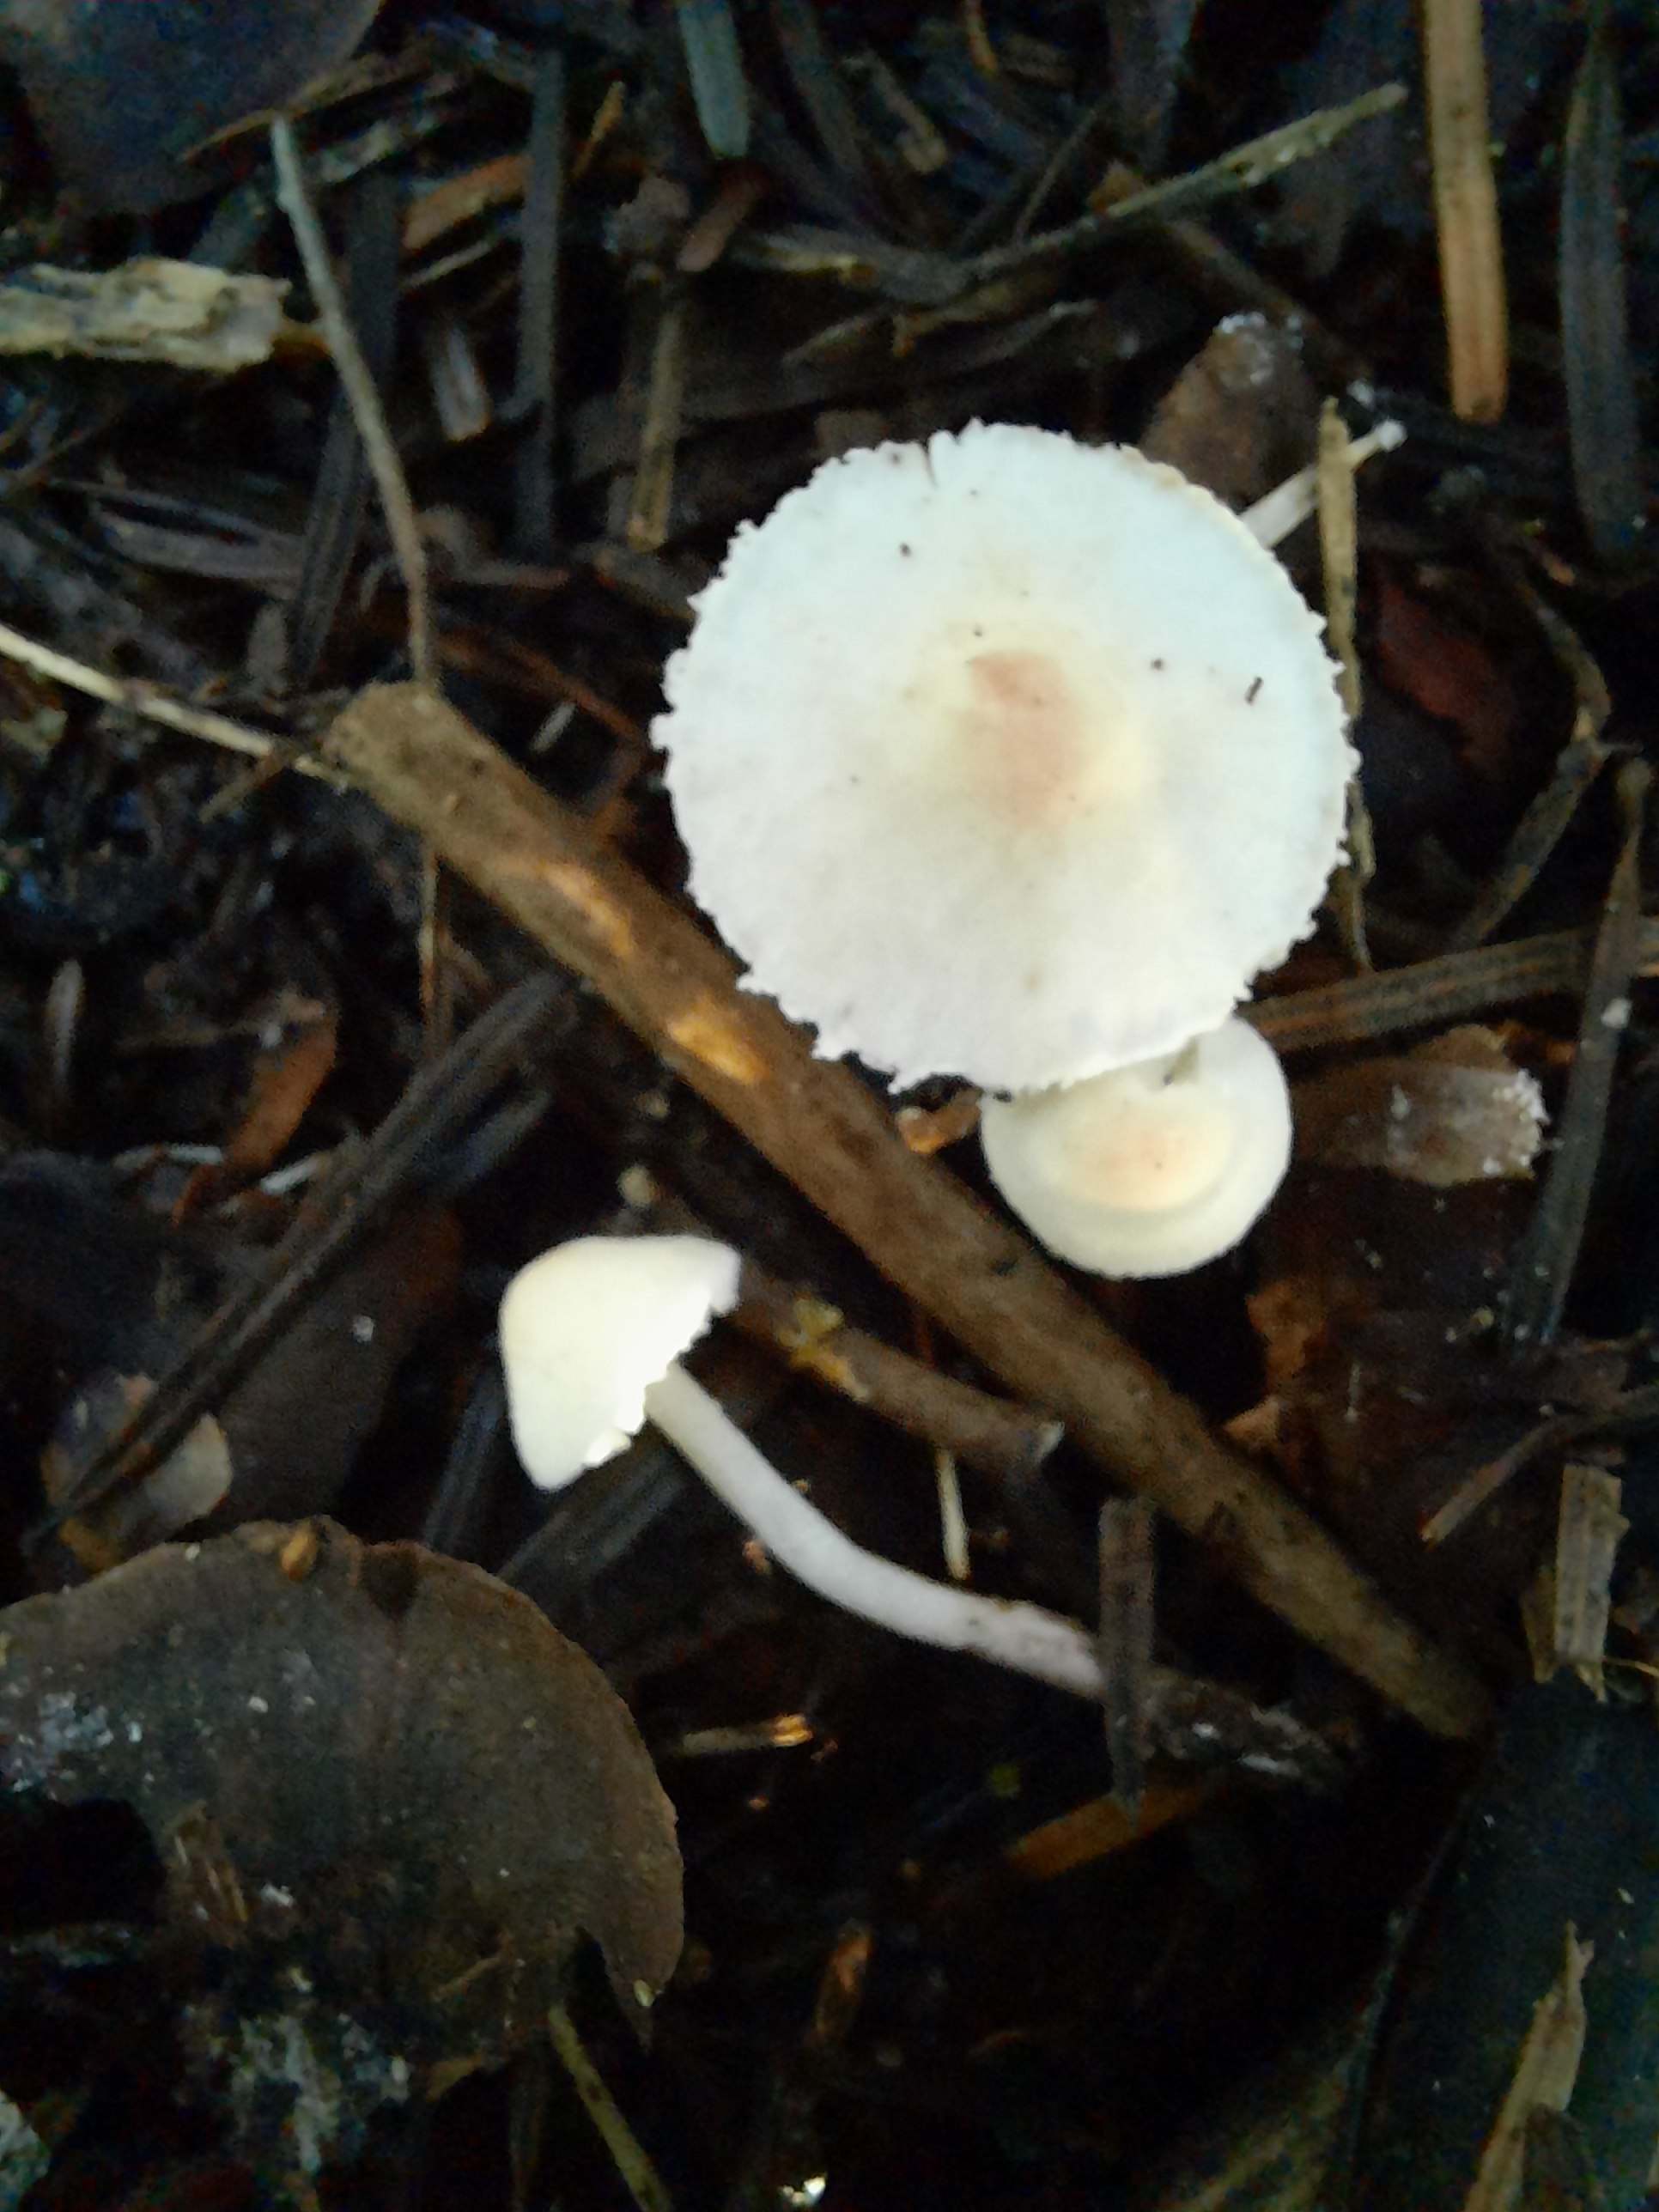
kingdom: Fungi
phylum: Basidiomycota
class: Agaricomycetes
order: Agaricales
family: Agaricaceae
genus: Cystolepiota
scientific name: Cystolepiota seminuda
